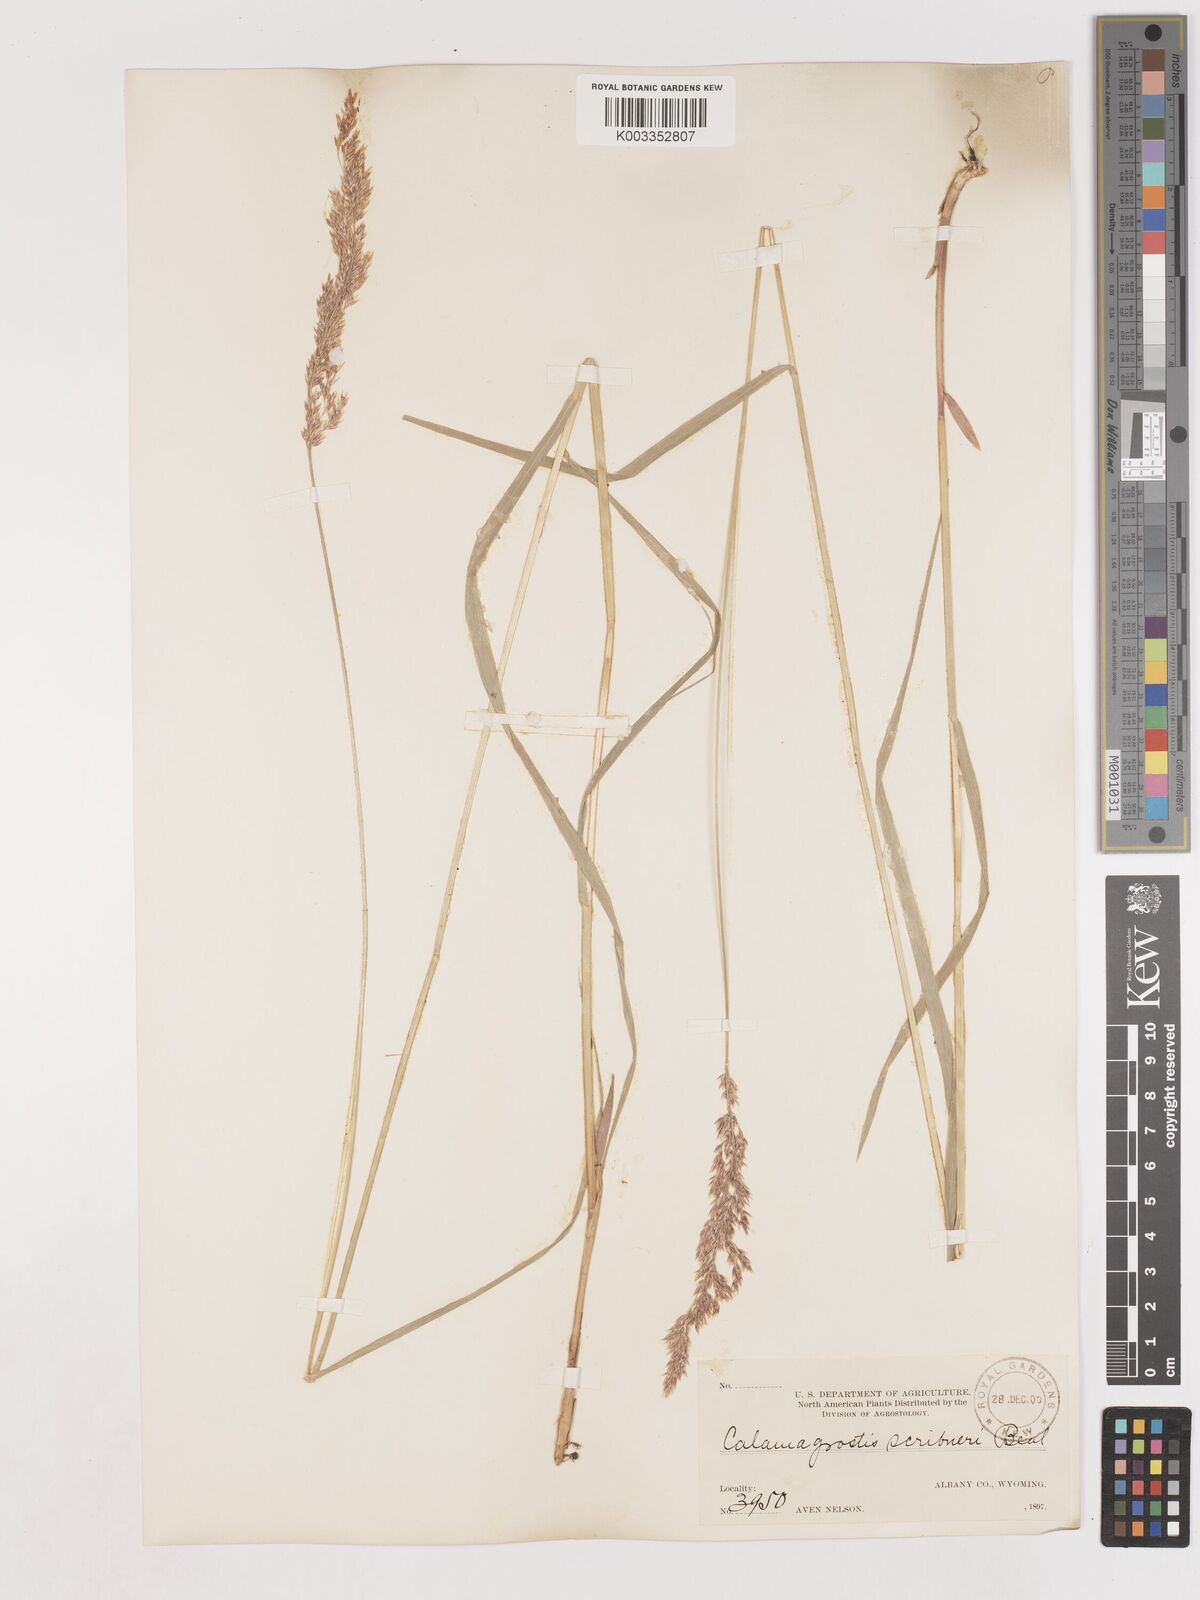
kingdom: Plantae
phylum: Tracheophyta
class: Liliopsida
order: Poales
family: Poaceae
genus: Calamagrostis
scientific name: Calamagrostis canadensis
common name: Canada bluejoint
